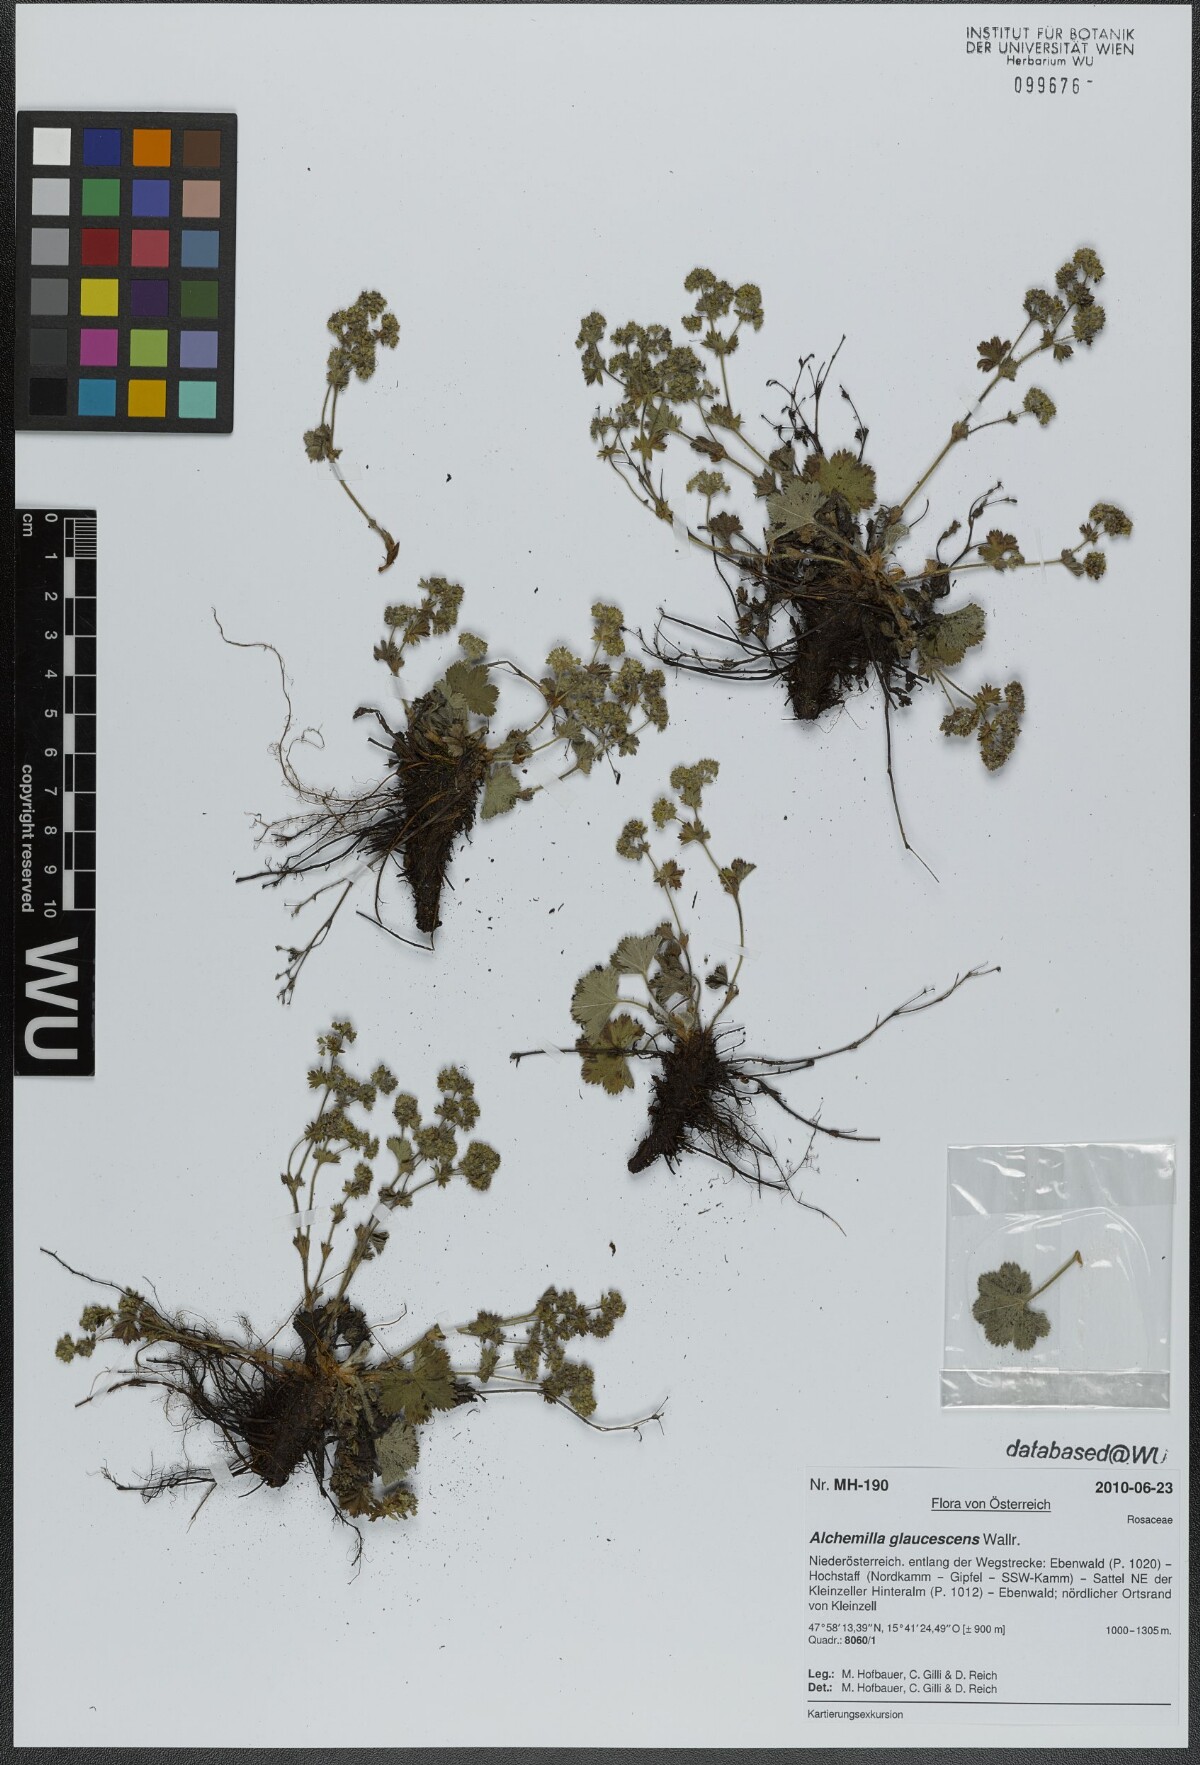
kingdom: Plantae
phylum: Tracheophyta
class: Magnoliopsida
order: Rosales
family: Rosaceae
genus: Alchemilla
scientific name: Alchemilla glaucescens
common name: Silky lady's mantle
